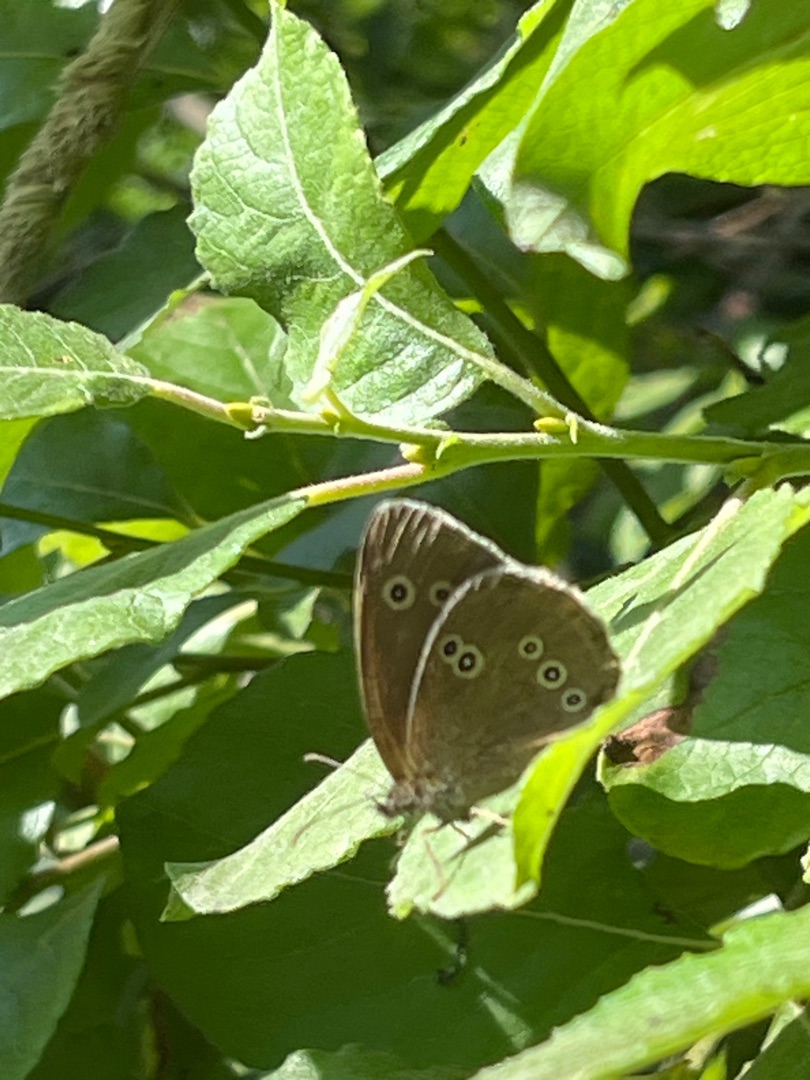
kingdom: Animalia
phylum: Arthropoda
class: Insecta
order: Lepidoptera
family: Nymphalidae
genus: Aphantopus
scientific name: Aphantopus hyperantus
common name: Engrandøje
